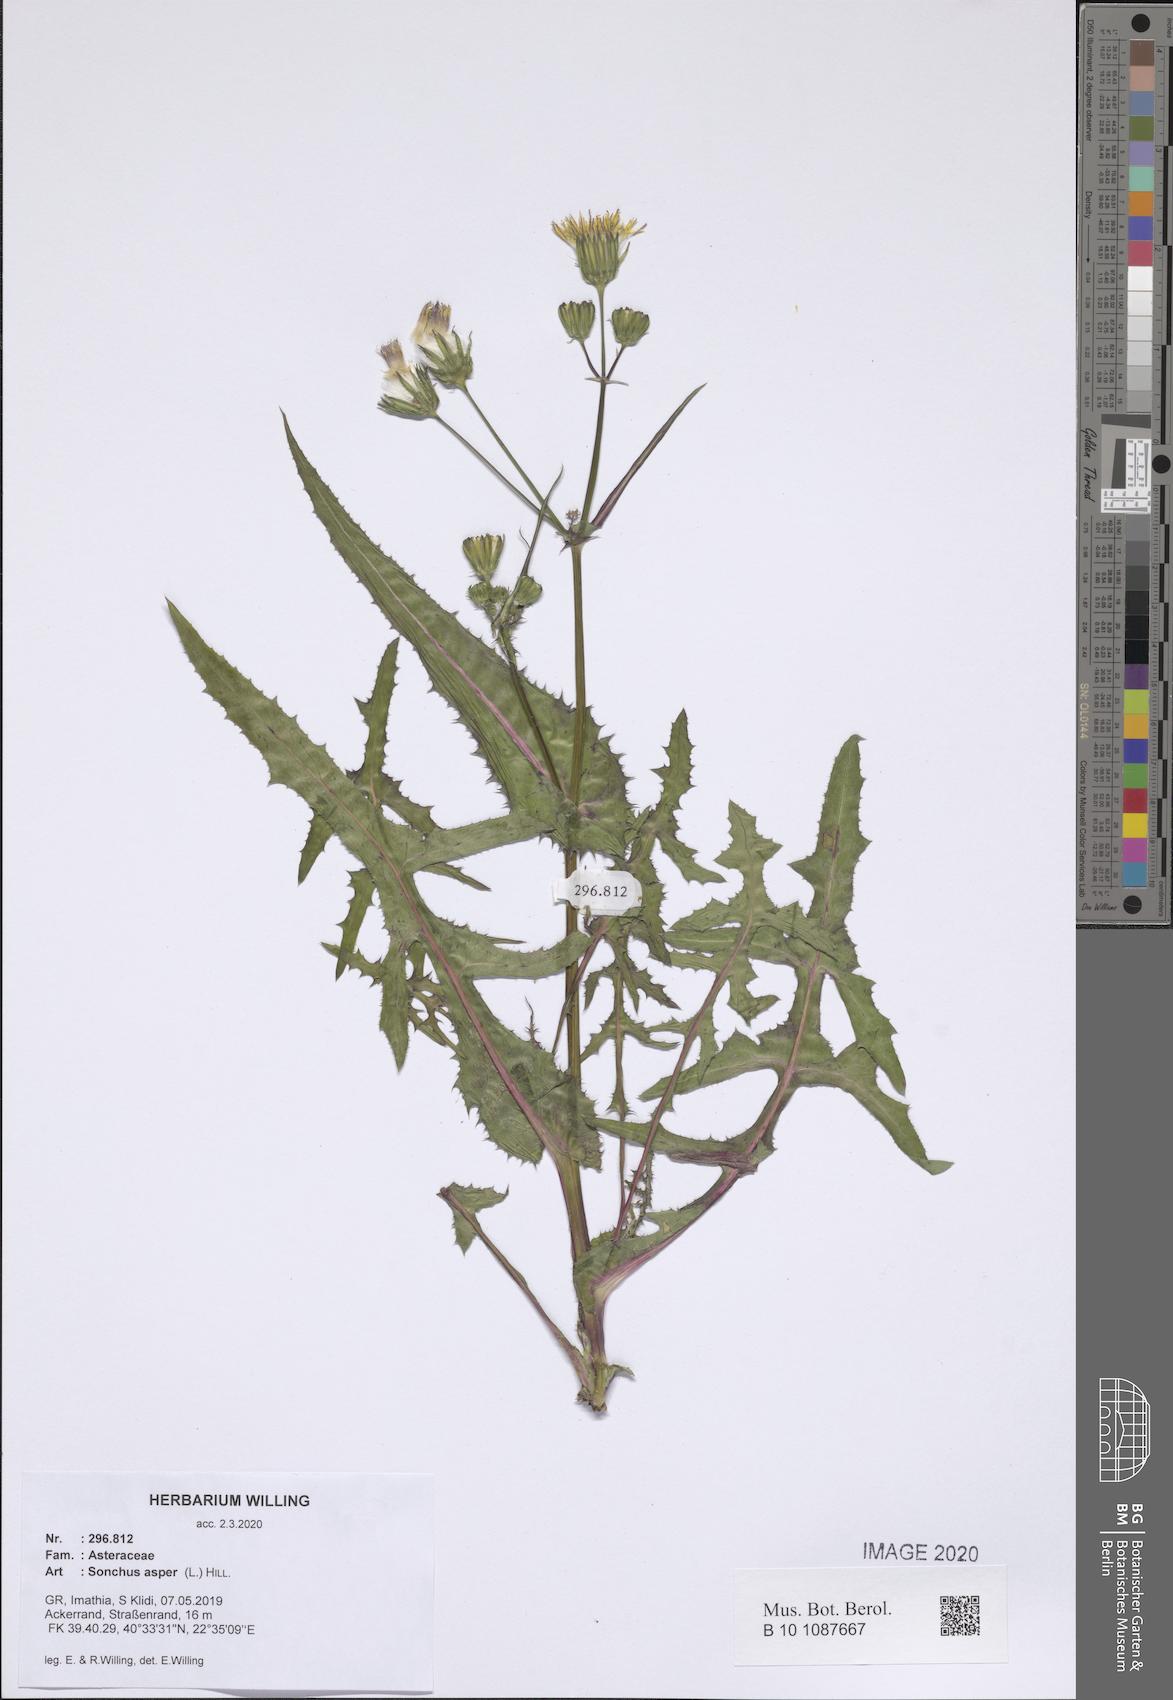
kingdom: Plantae
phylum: Tracheophyta
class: Magnoliopsida
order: Asterales
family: Asteraceae
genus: Sonchus
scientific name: Sonchus asper
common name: Prickly sow-thistle
